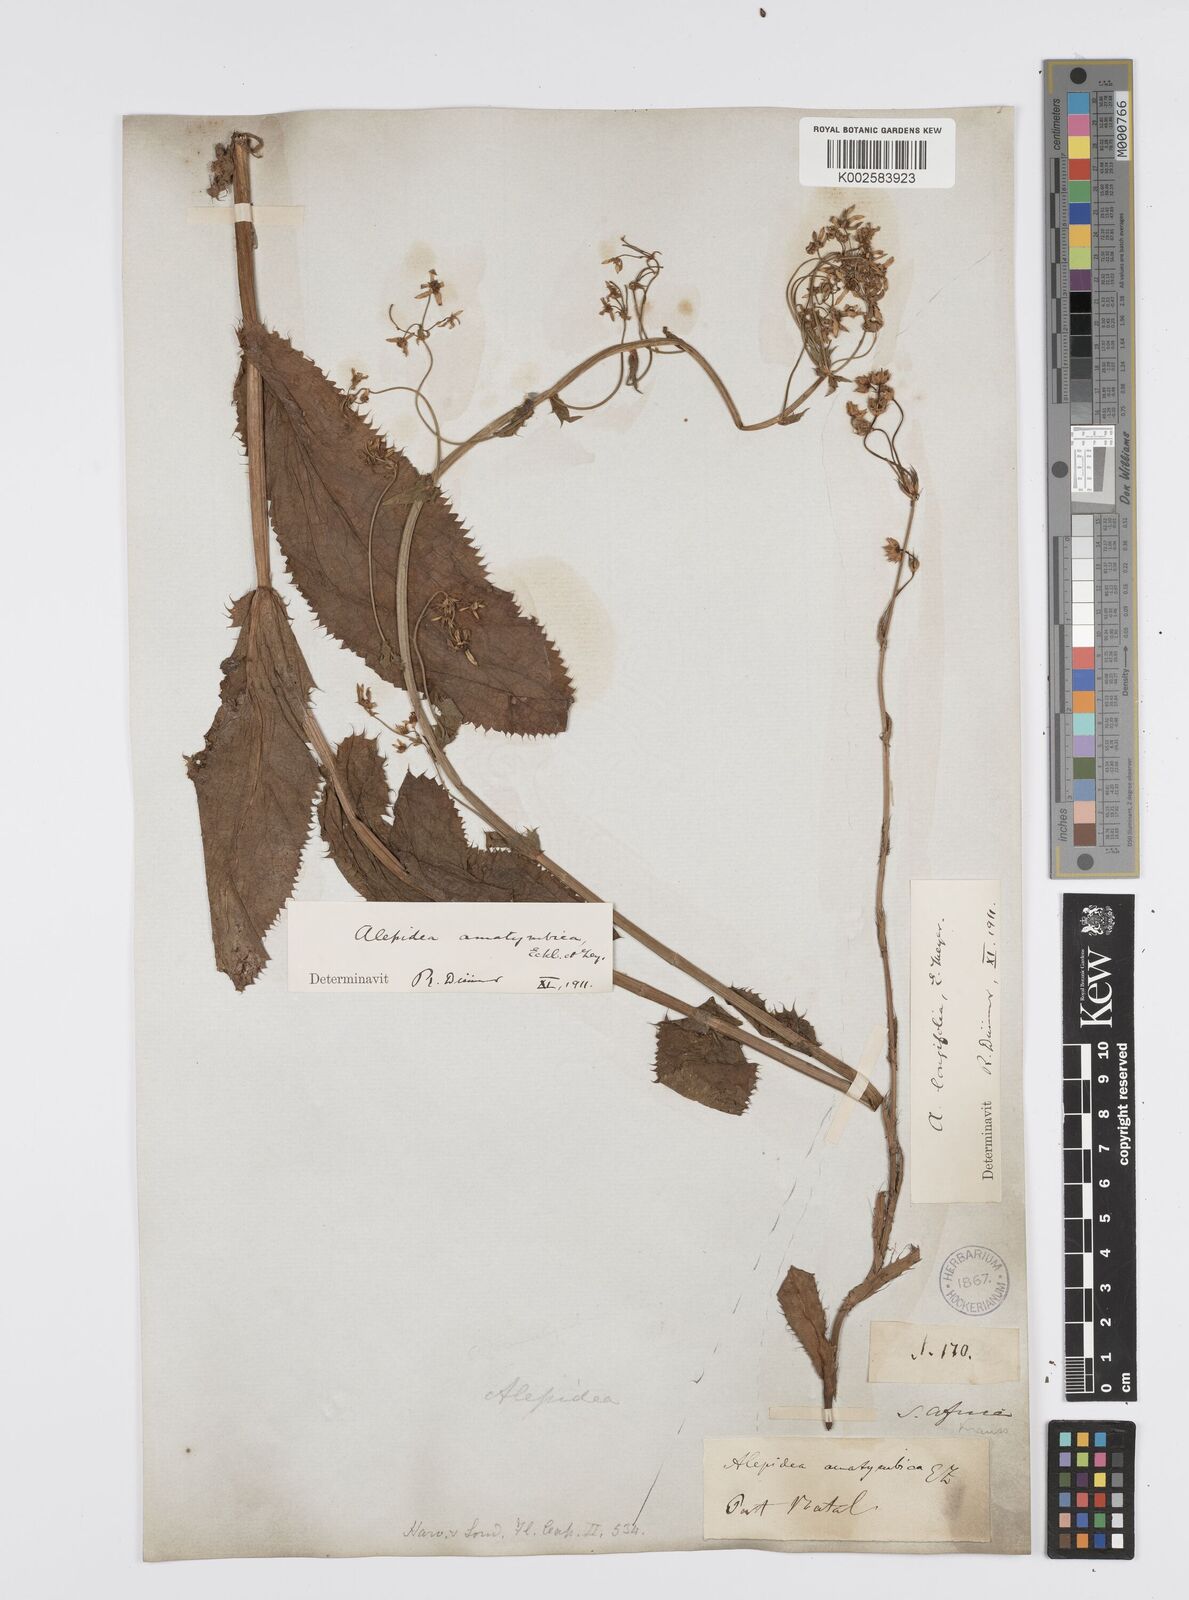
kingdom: Plantae
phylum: Tracheophyta
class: Magnoliopsida
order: Apiales
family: Apiaceae
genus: Alepidea
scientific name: Alepidea amatymbica
